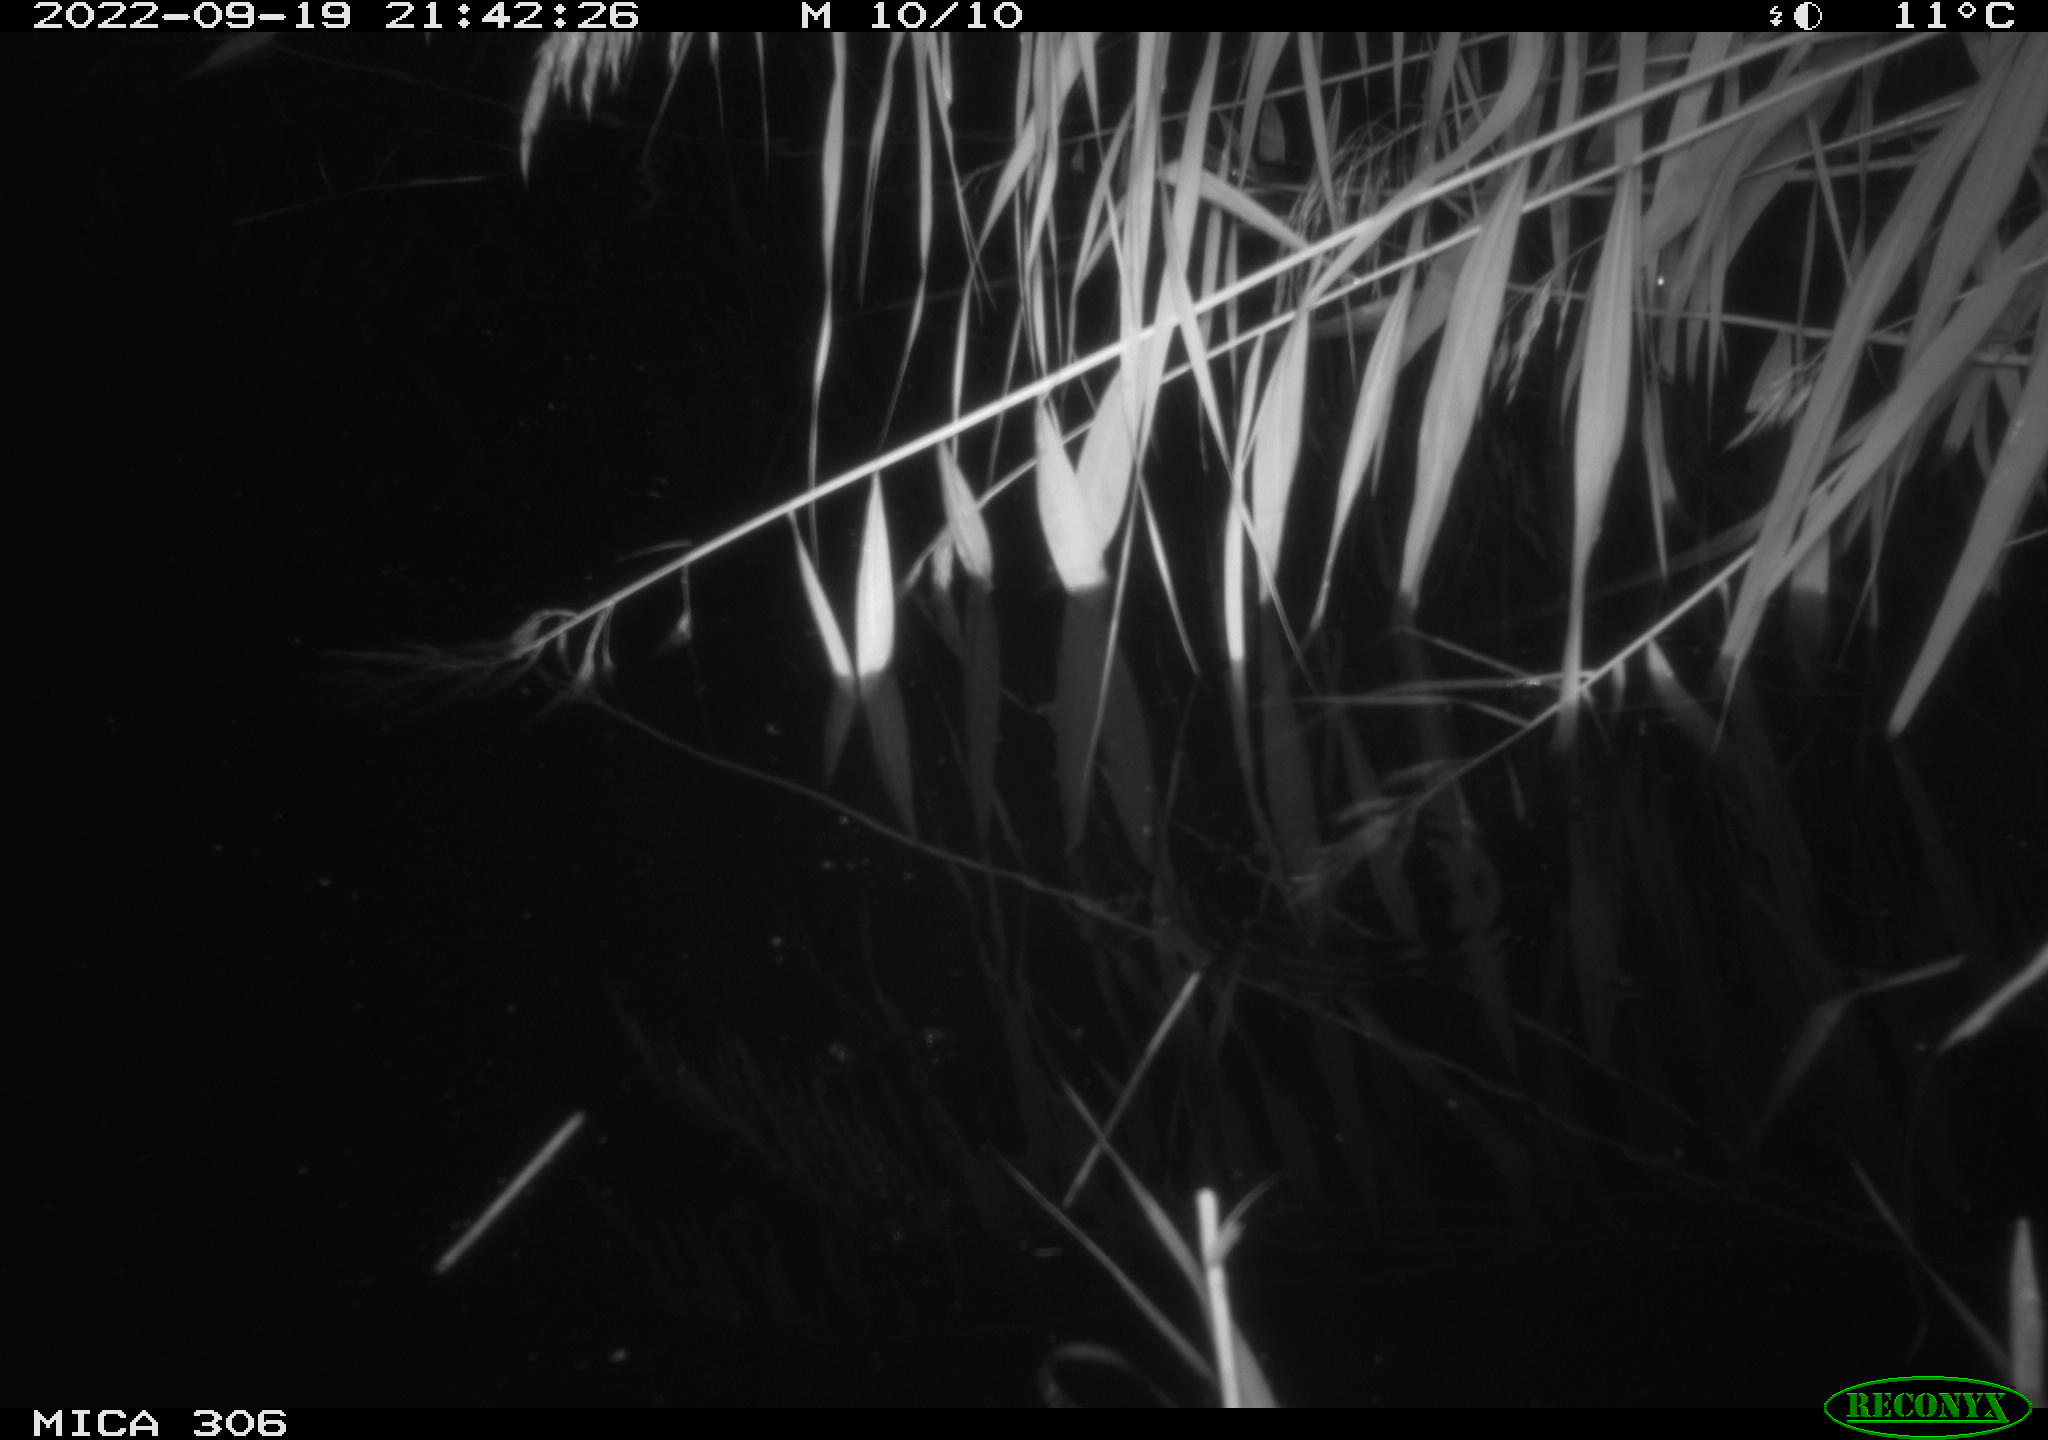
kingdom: Animalia
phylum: Chordata
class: Mammalia
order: Rodentia
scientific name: Rodentia
